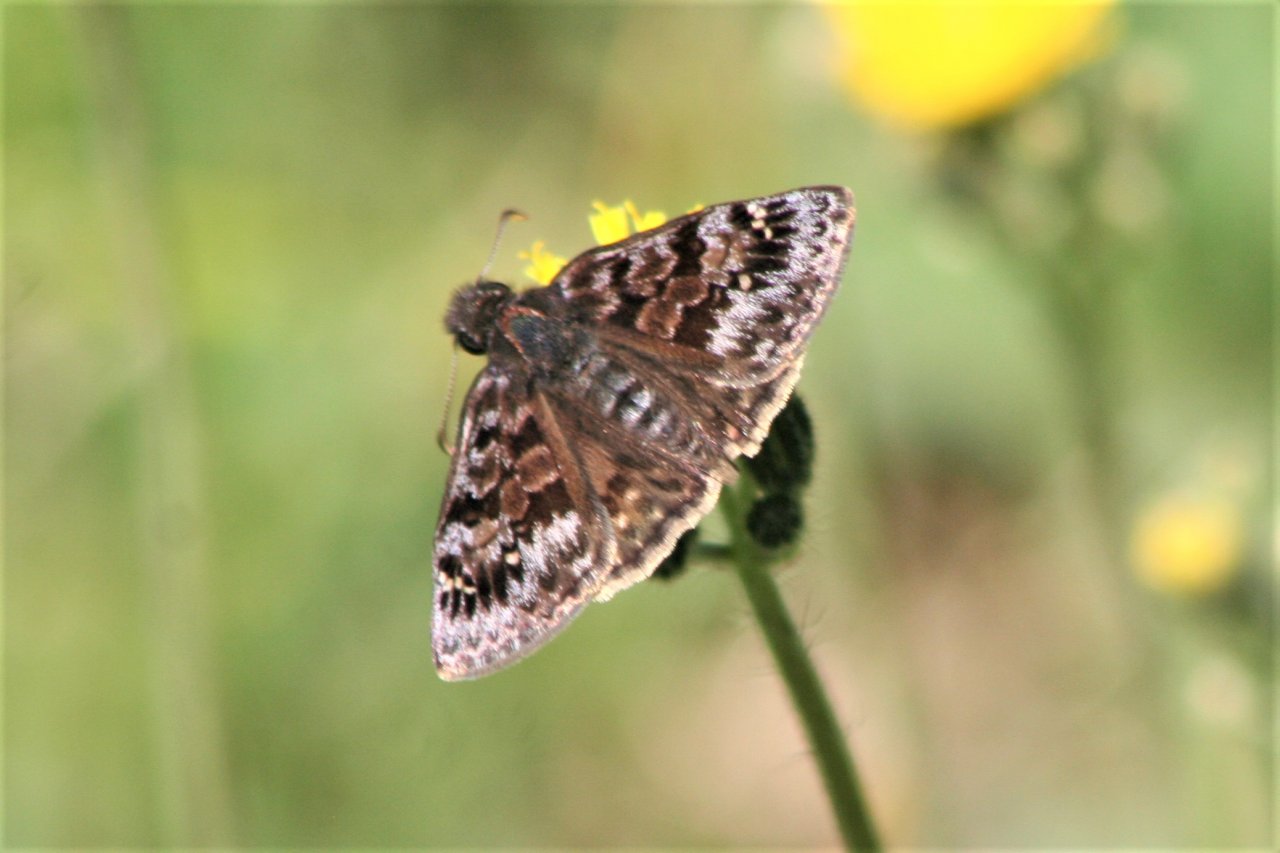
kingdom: Animalia
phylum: Arthropoda
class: Insecta
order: Lepidoptera
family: Hesperiidae
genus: Erynnis
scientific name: Erynnis martialis
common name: Mottled Duskywing
